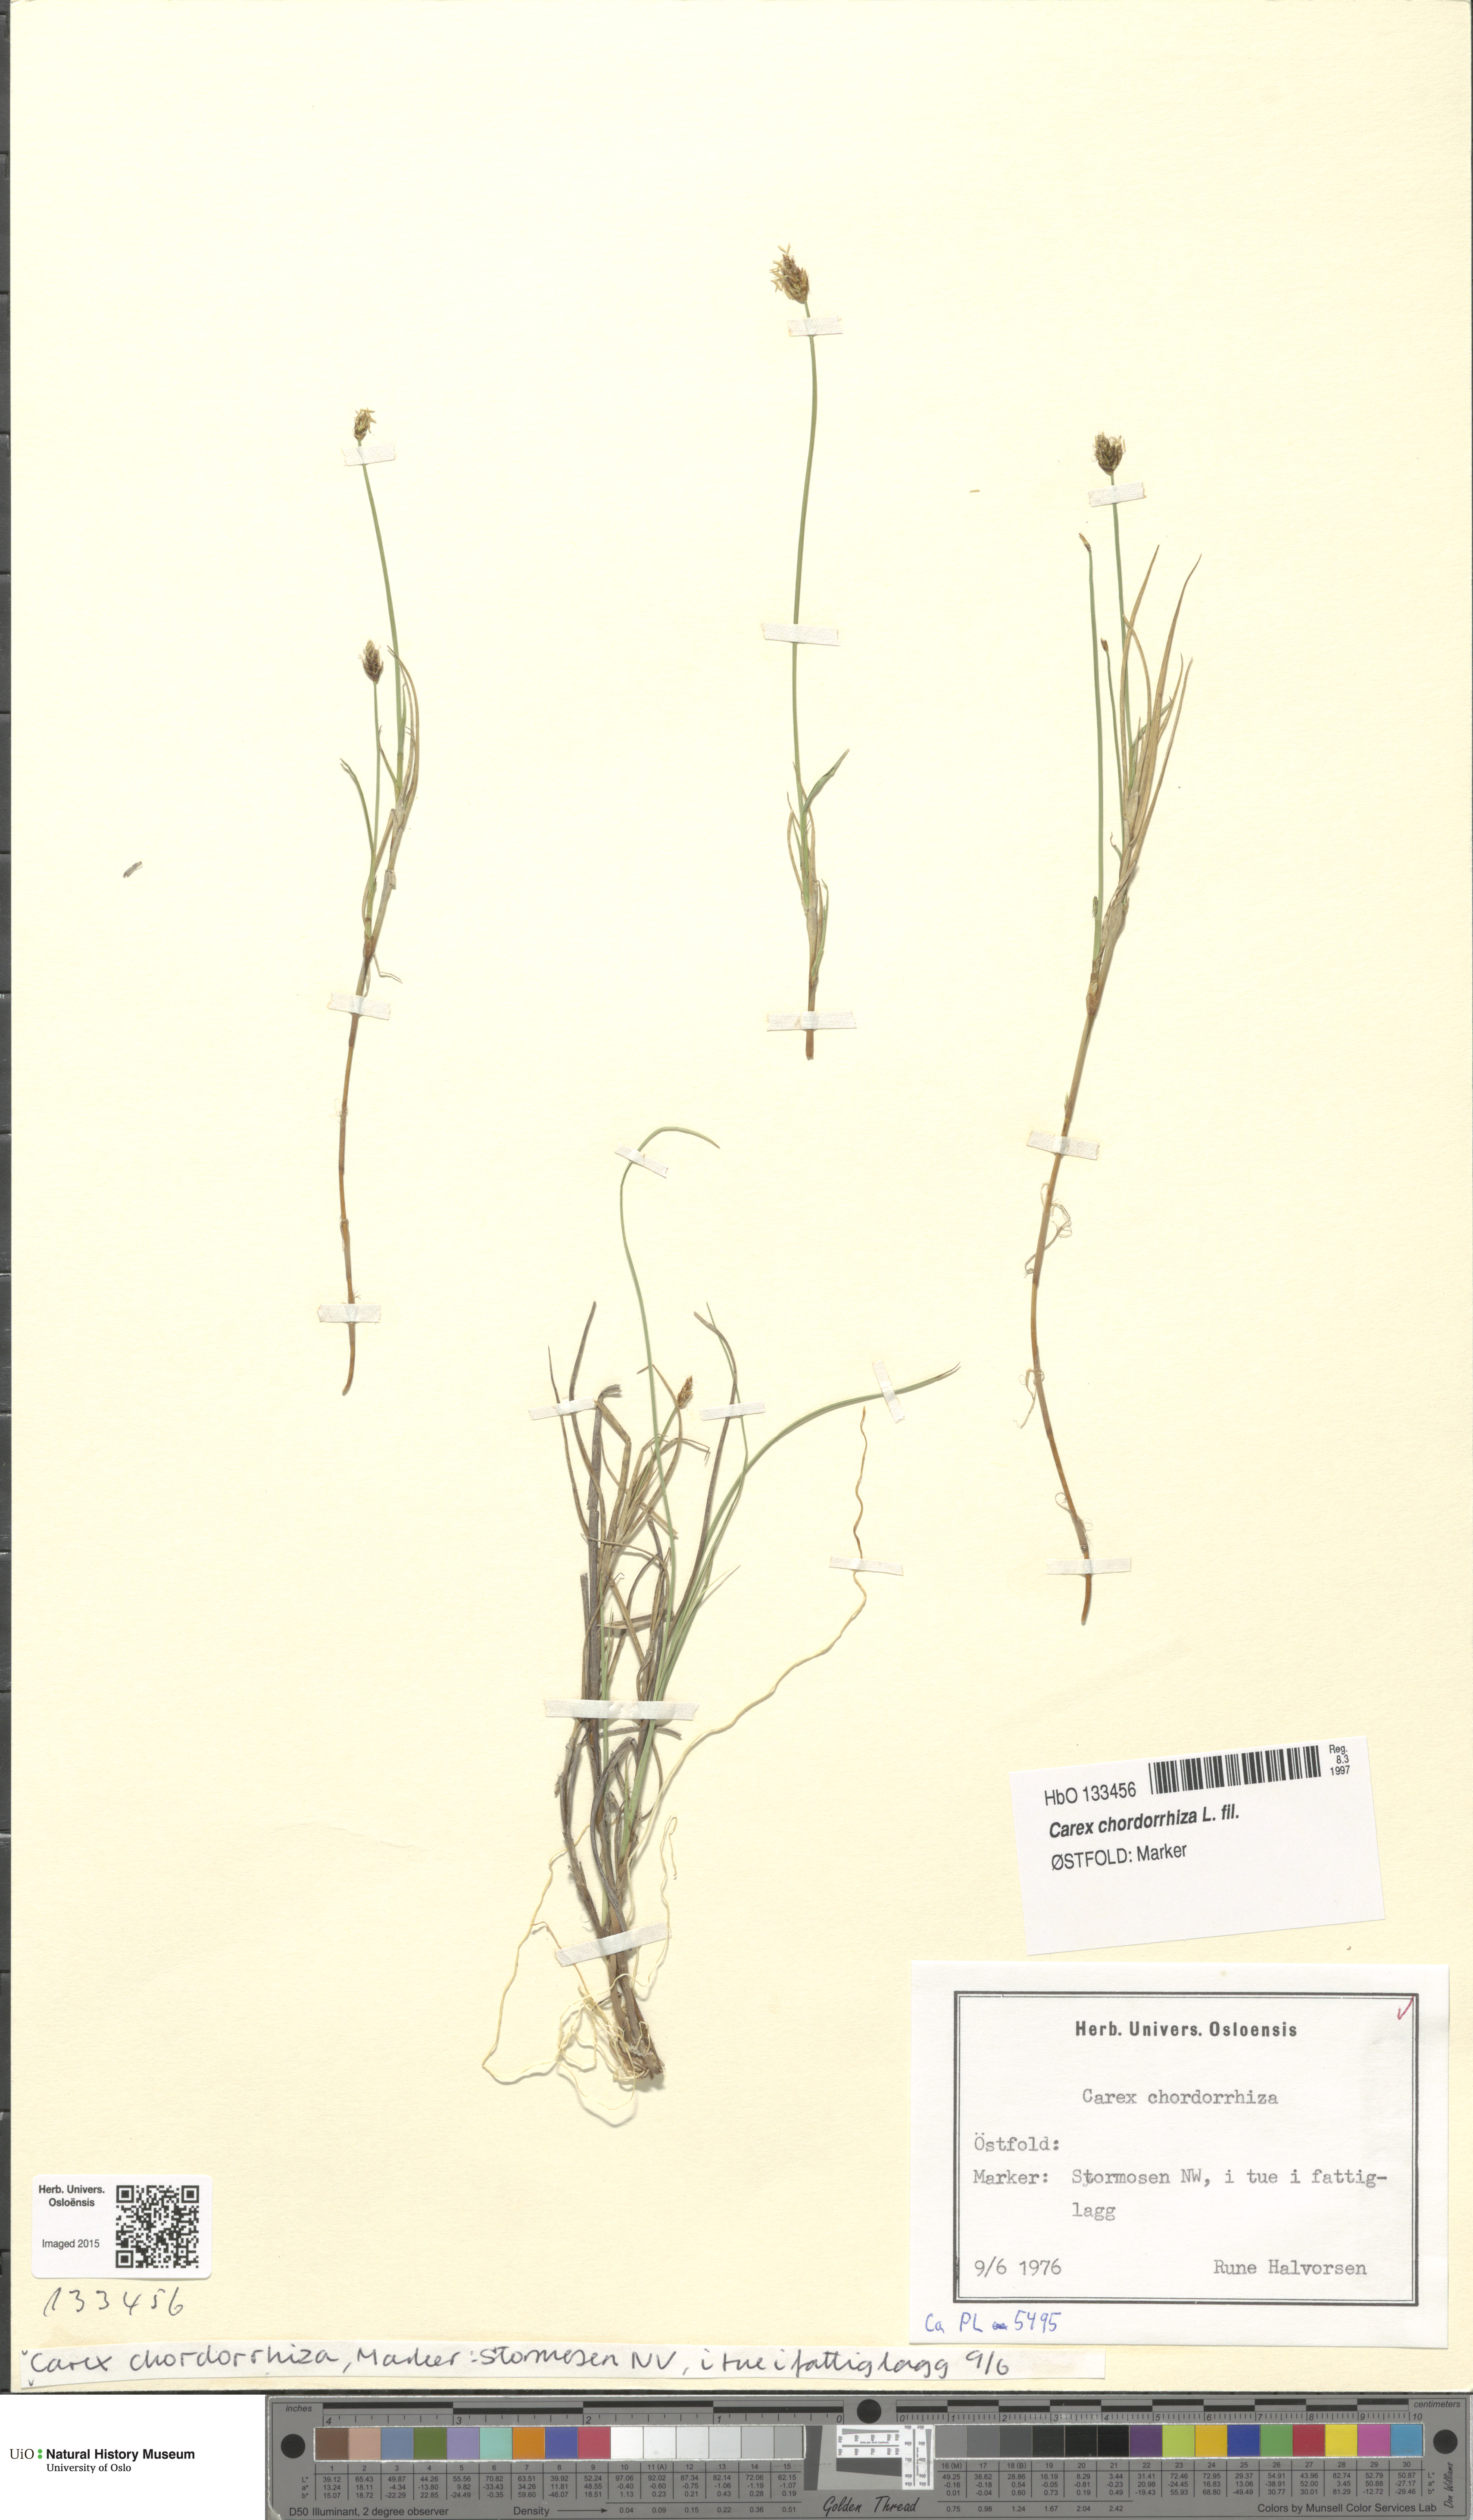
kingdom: Plantae
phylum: Tracheophyta
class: Liliopsida
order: Poales
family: Cyperaceae
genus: Carex
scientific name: Carex chordorrhiza
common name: String sedge
